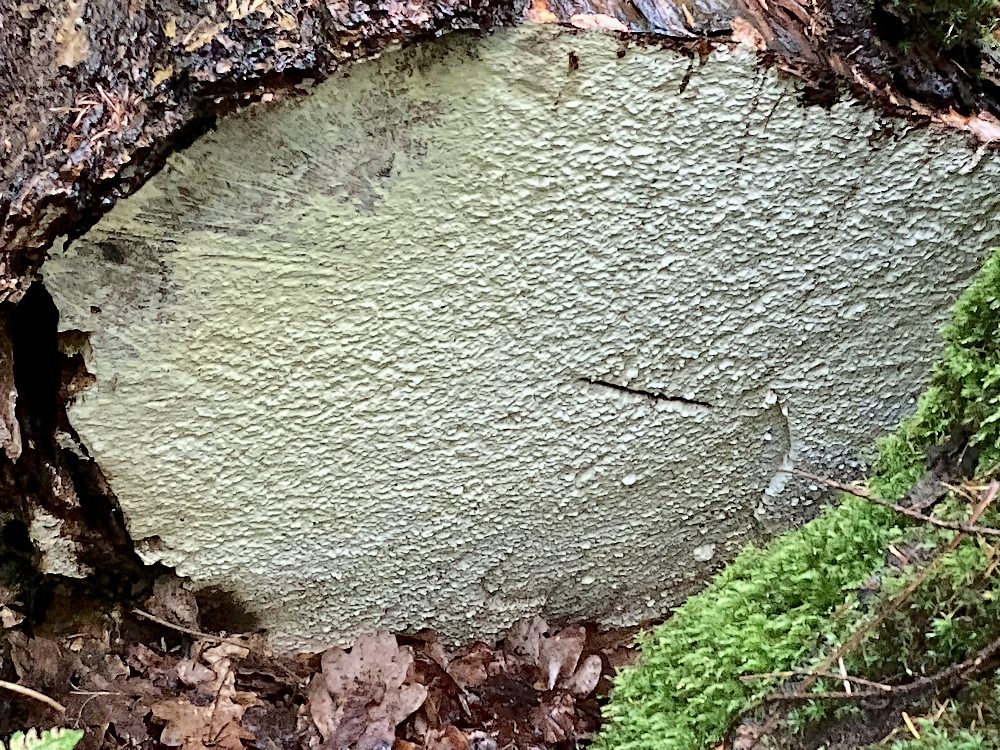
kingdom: Fungi
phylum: Basidiomycota
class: Agaricomycetes
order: Polyporales
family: Fomitopsidaceae
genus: Daedalea
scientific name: Daedalea xantha
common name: gul sejporesvamp
